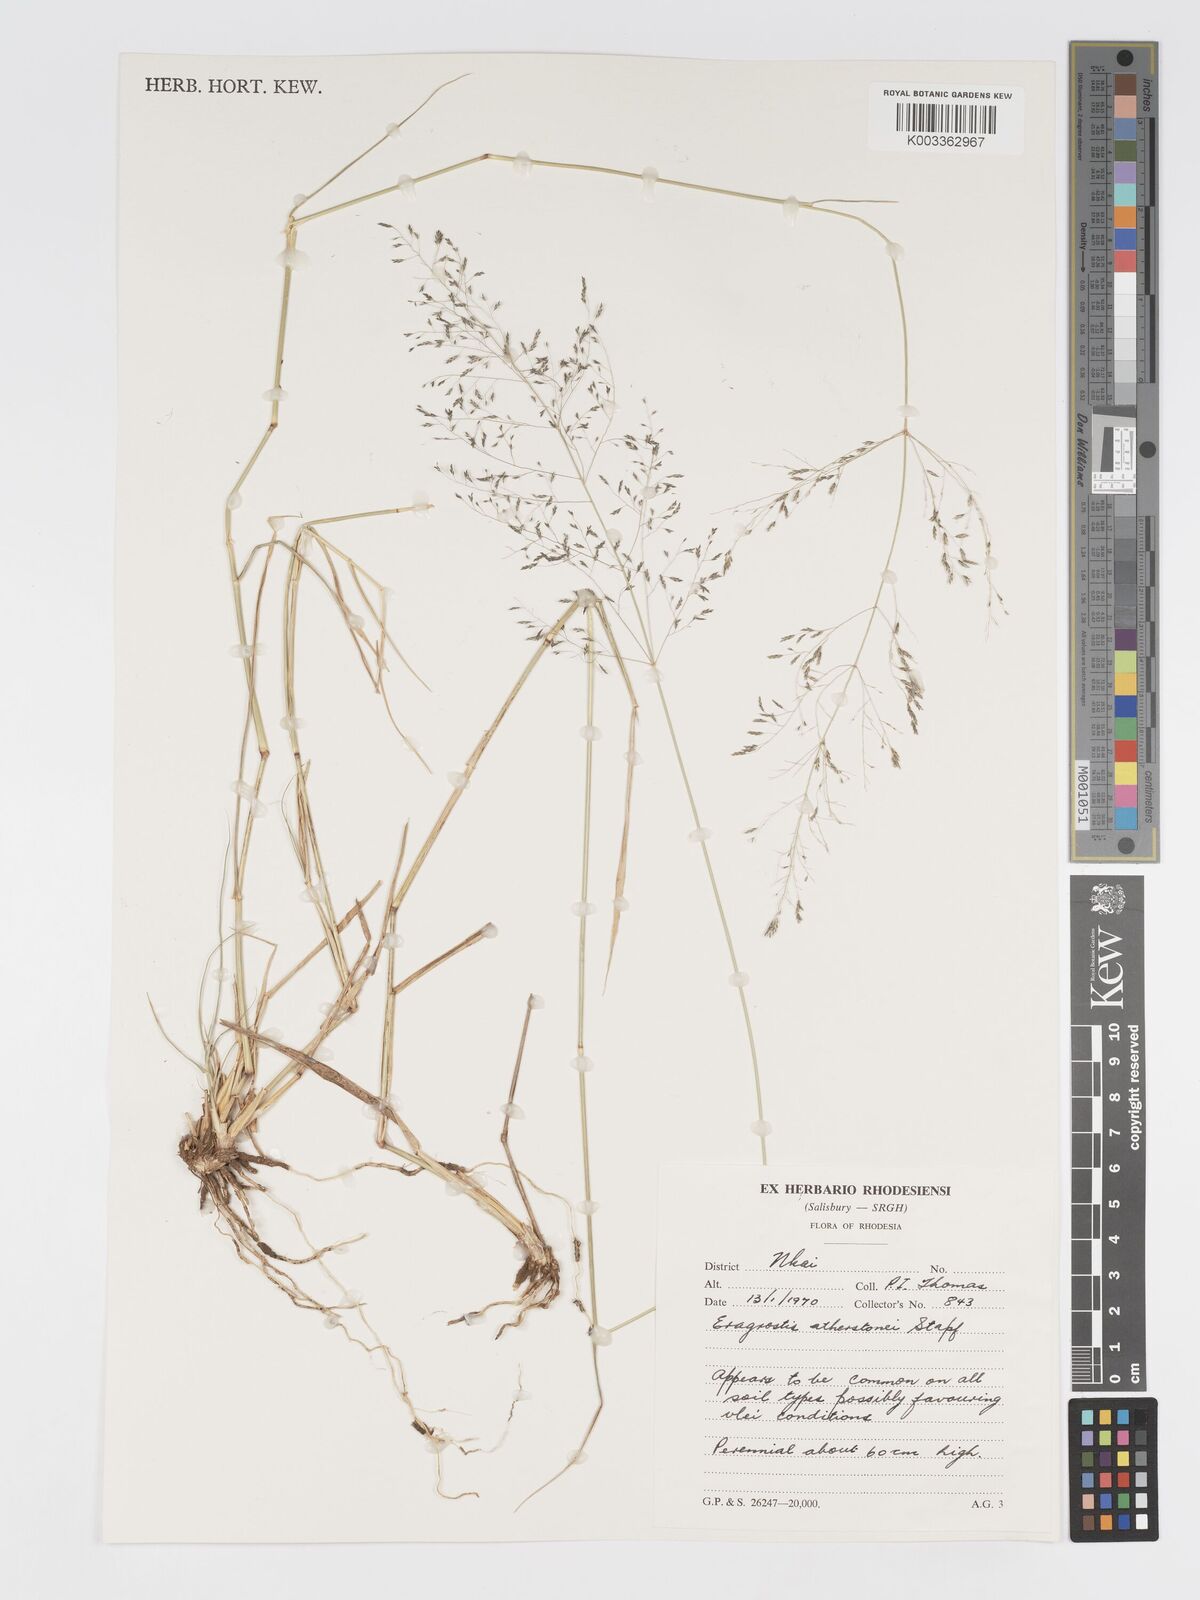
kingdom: Plantae
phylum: Tracheophyta
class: Liliopsida
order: Poales
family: Poaceae
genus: Eragrostis
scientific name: Eragrostis cylindriflora
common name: Cylinderflower lovegrass
